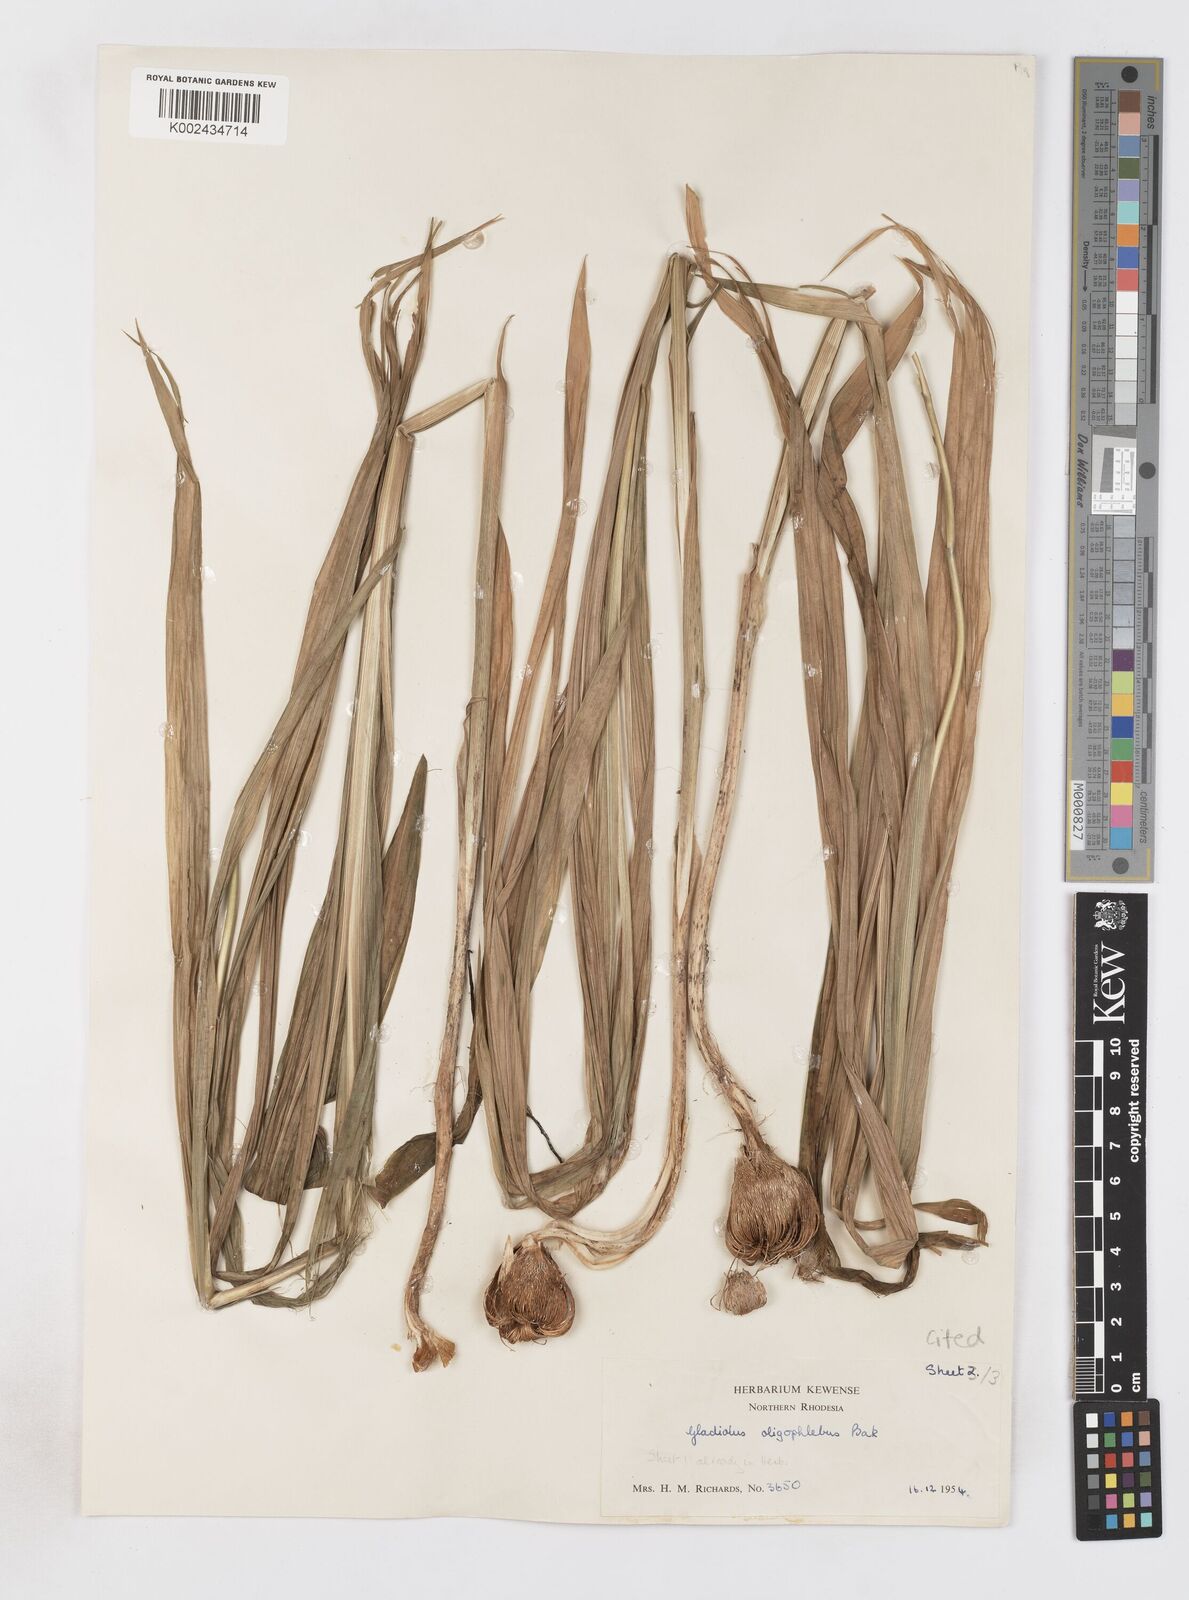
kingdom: Plantae
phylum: Tracheophyta
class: Liliopsida
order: Asparagales
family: Iridaceae
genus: Gladiolus
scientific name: Gladiolus oligophlebius
